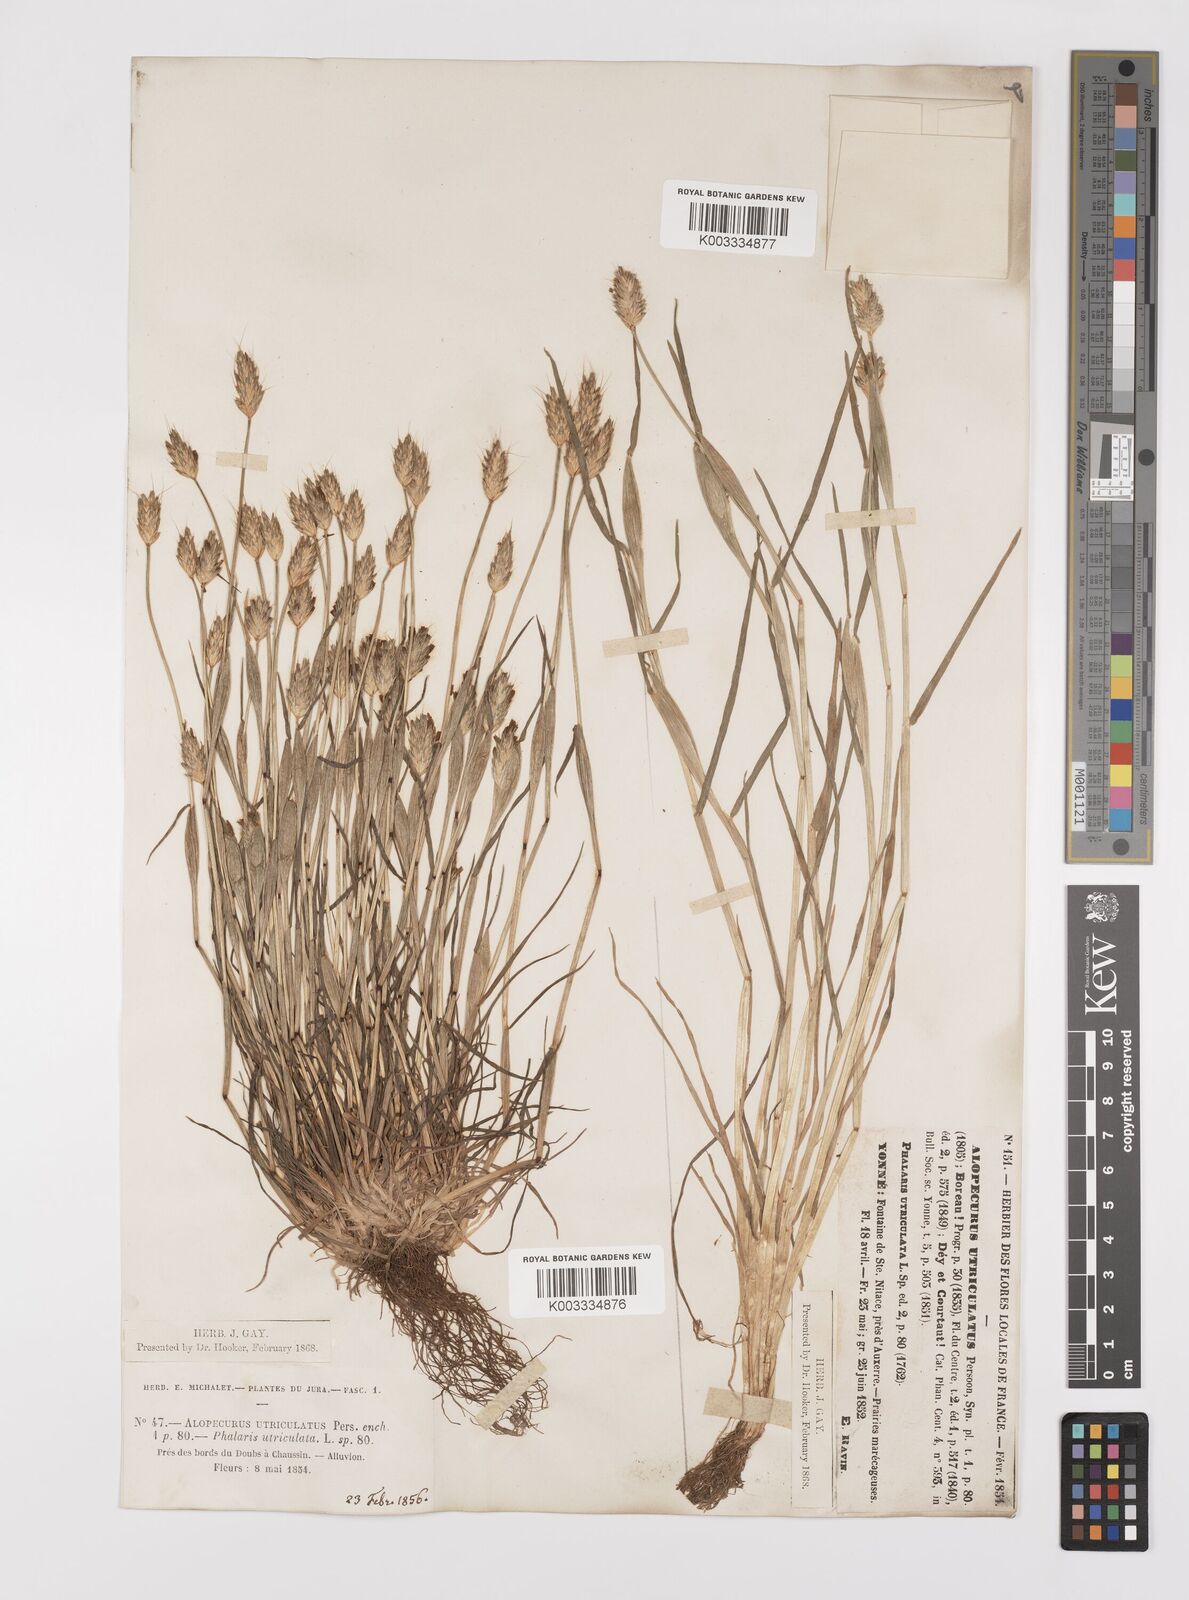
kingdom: Plantae
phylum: Tracheophyta
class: Liliopsida
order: Poales
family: Poaceae
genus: Alopecurus
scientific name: Alopecurus rendlei
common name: Rendle's meadow foxtail
